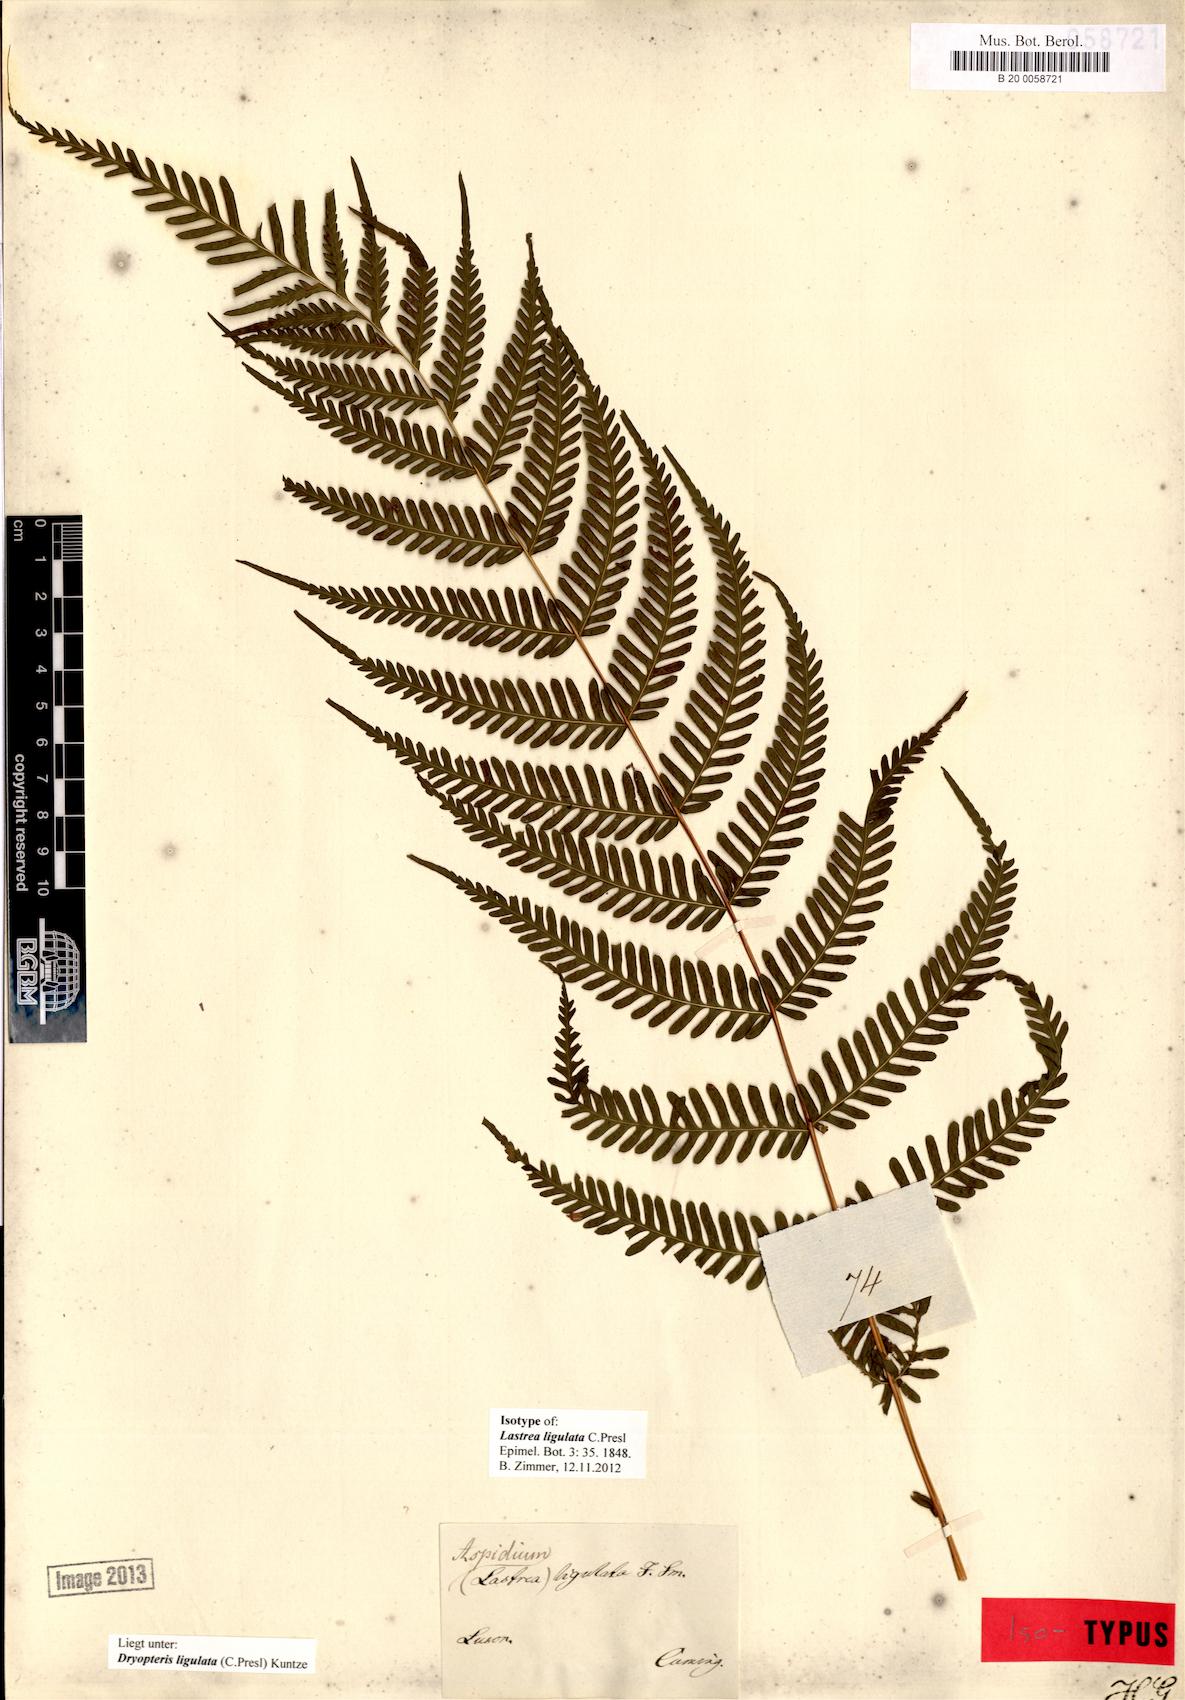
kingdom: Plantae
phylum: Tracheophyta
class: Polypodiopsida
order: Polypodiales
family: Thelypteridaceae
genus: Plesioneuron
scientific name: Plesioneuron ligulatum
